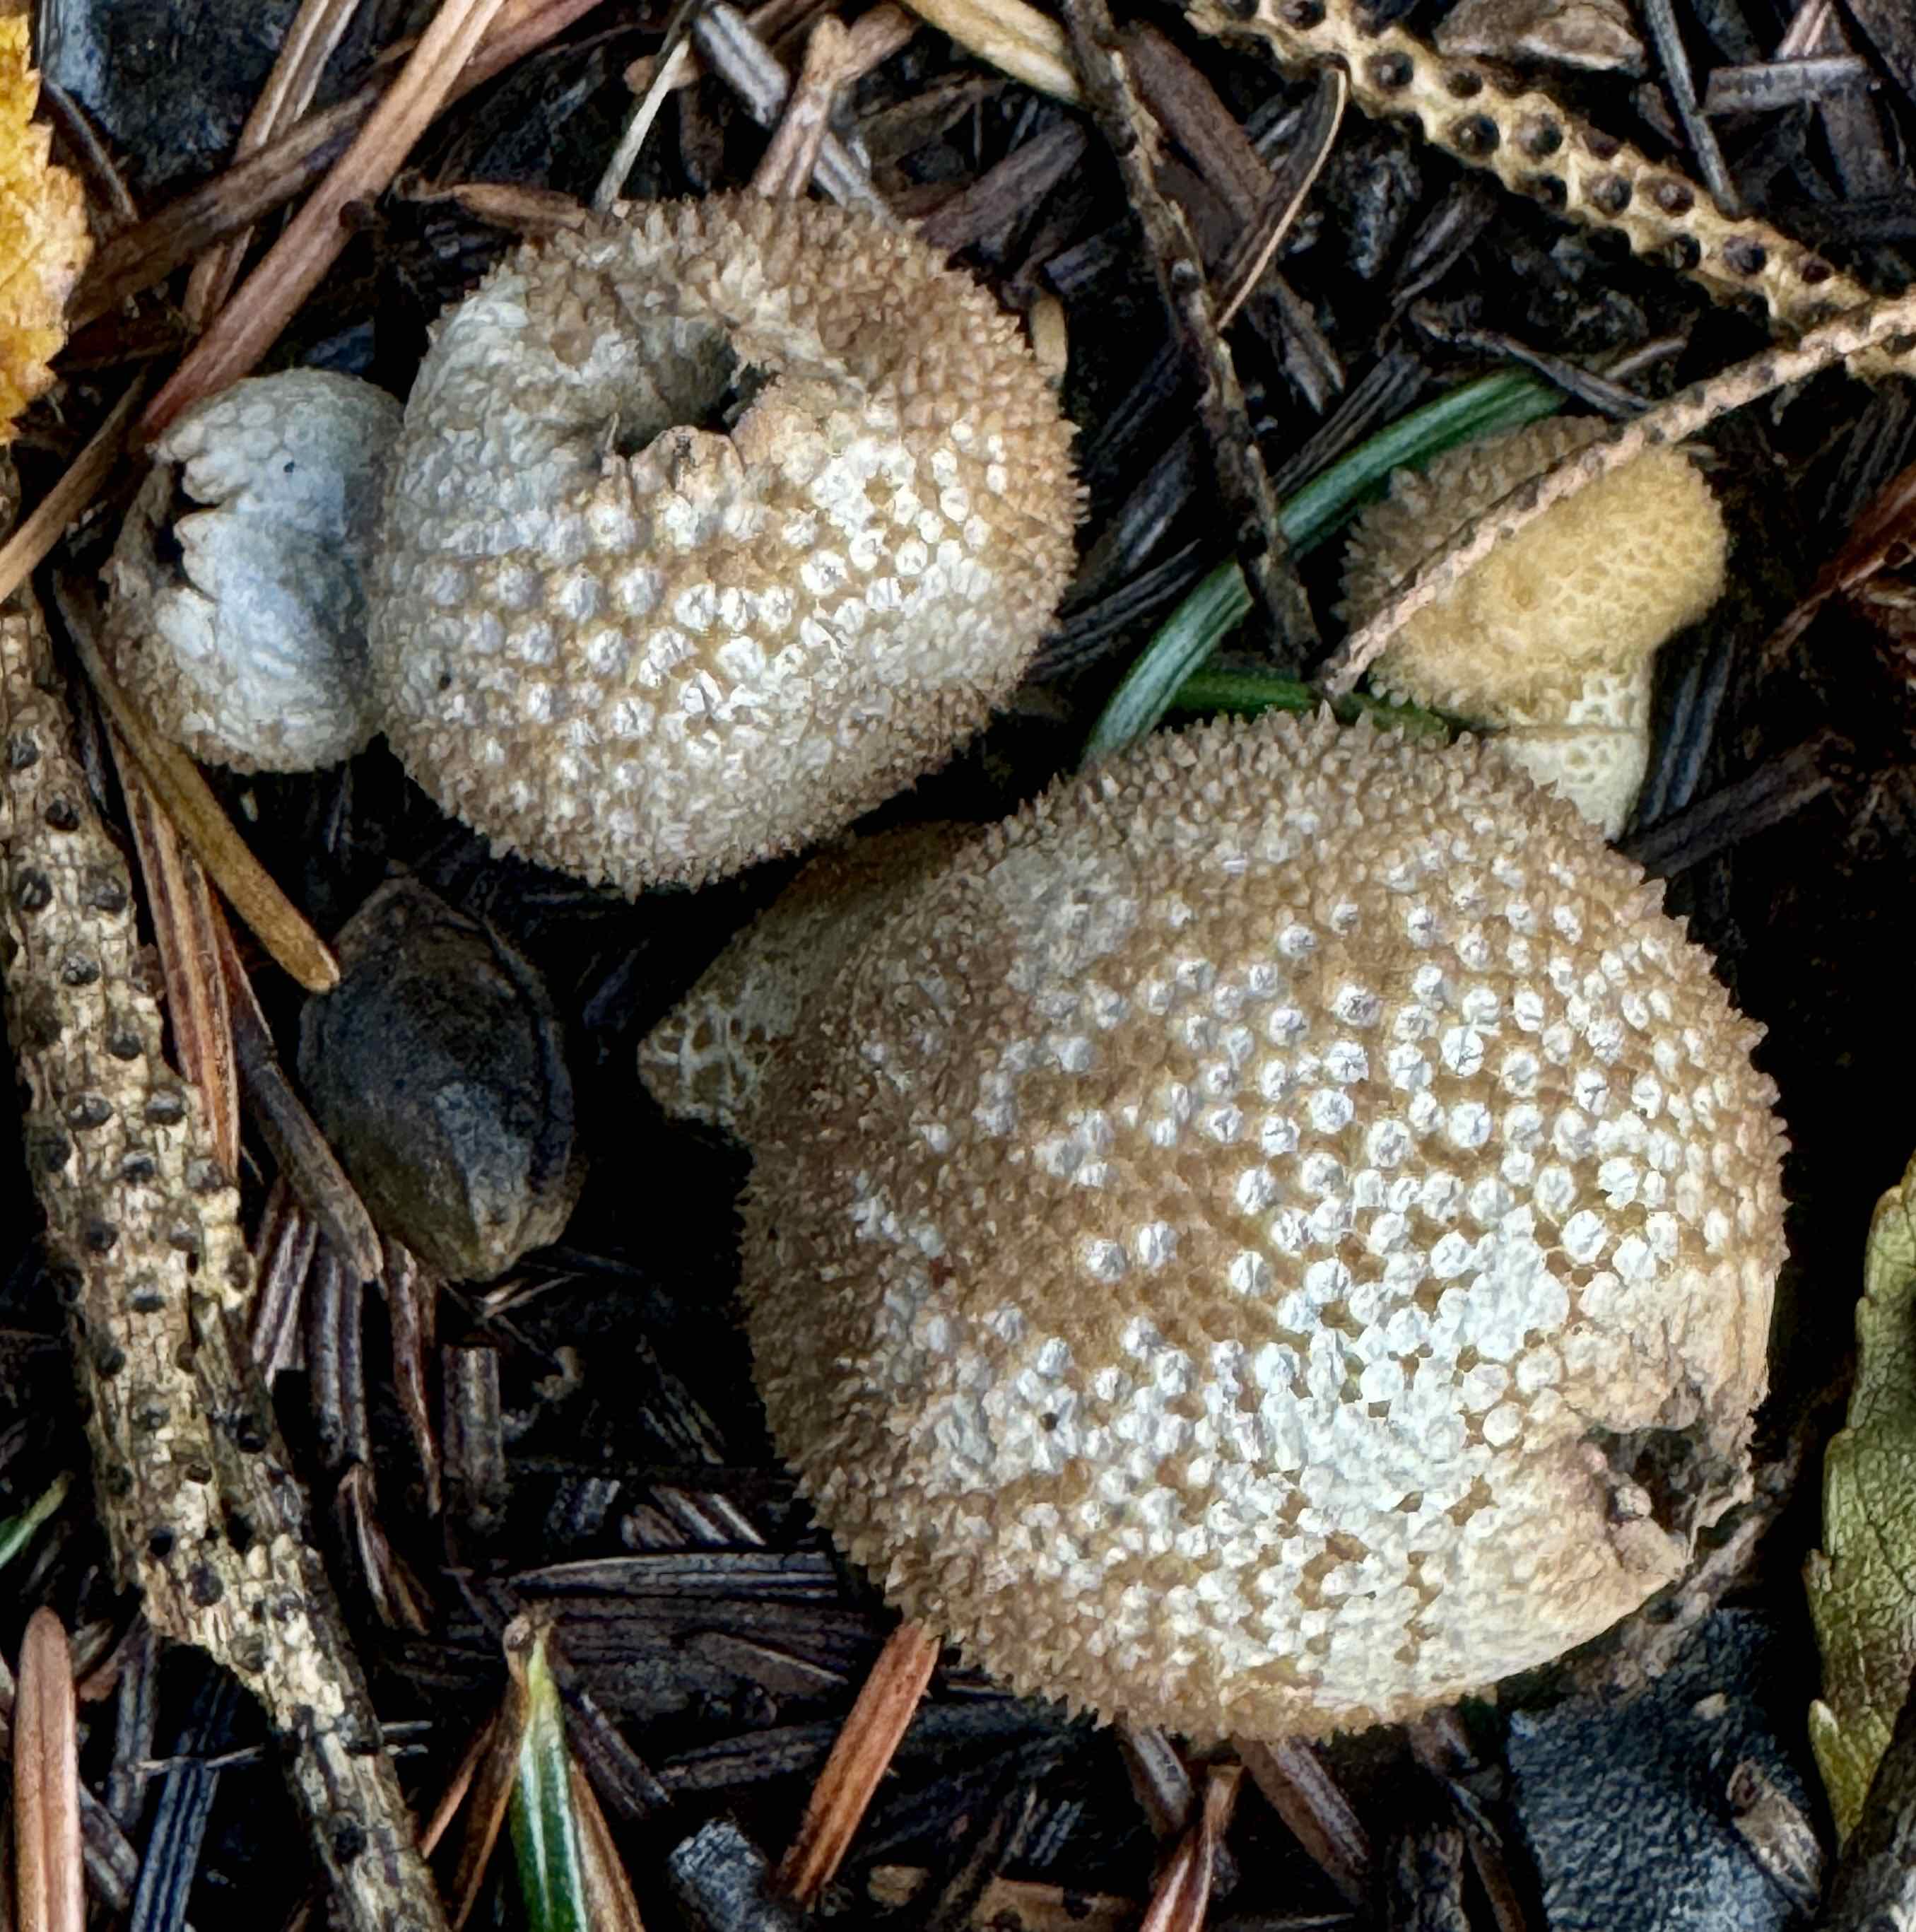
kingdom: Fungi
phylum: Basidiomycota
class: Agaricomycetes
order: Agaricales
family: Lycoperdaceae
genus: Lycoperdon
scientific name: Lycoperdon perlatum
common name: krystal-støvbold
